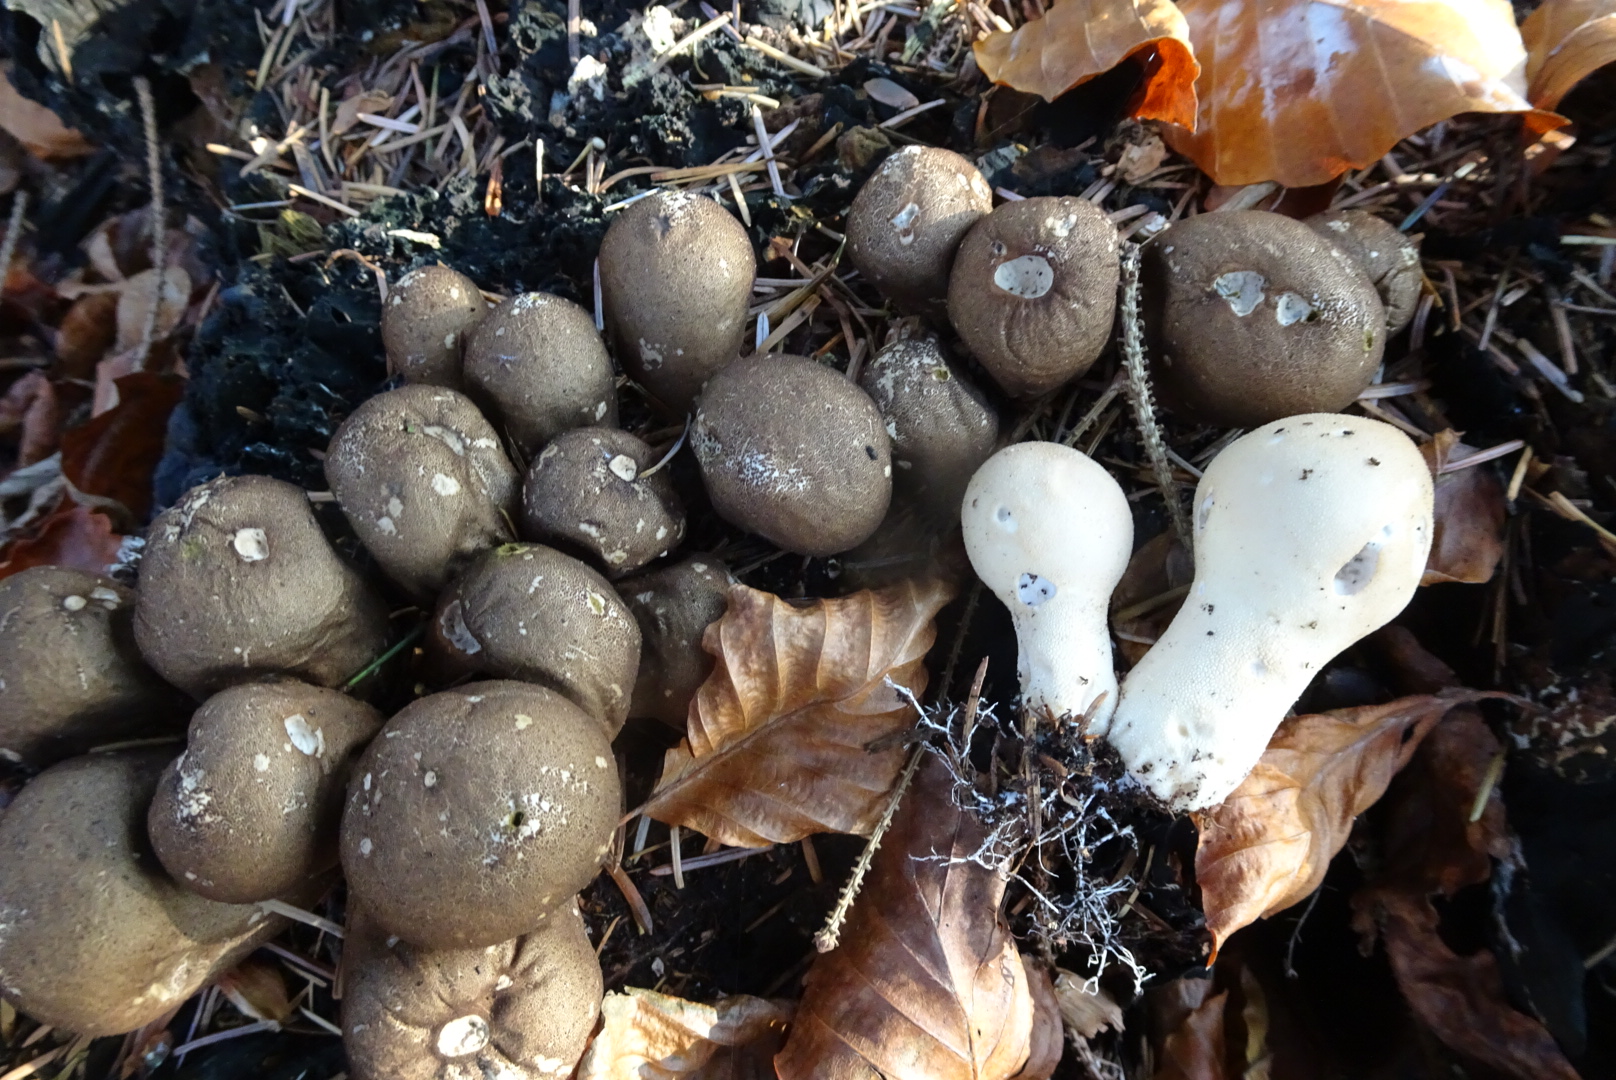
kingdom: Fungi
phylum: Basidiomycota
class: Agaricomycetes
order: Agaricales
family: Lycoperdaceae
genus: Apioperdon
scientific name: Apioperdon pyriforme
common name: pære-støvbold
